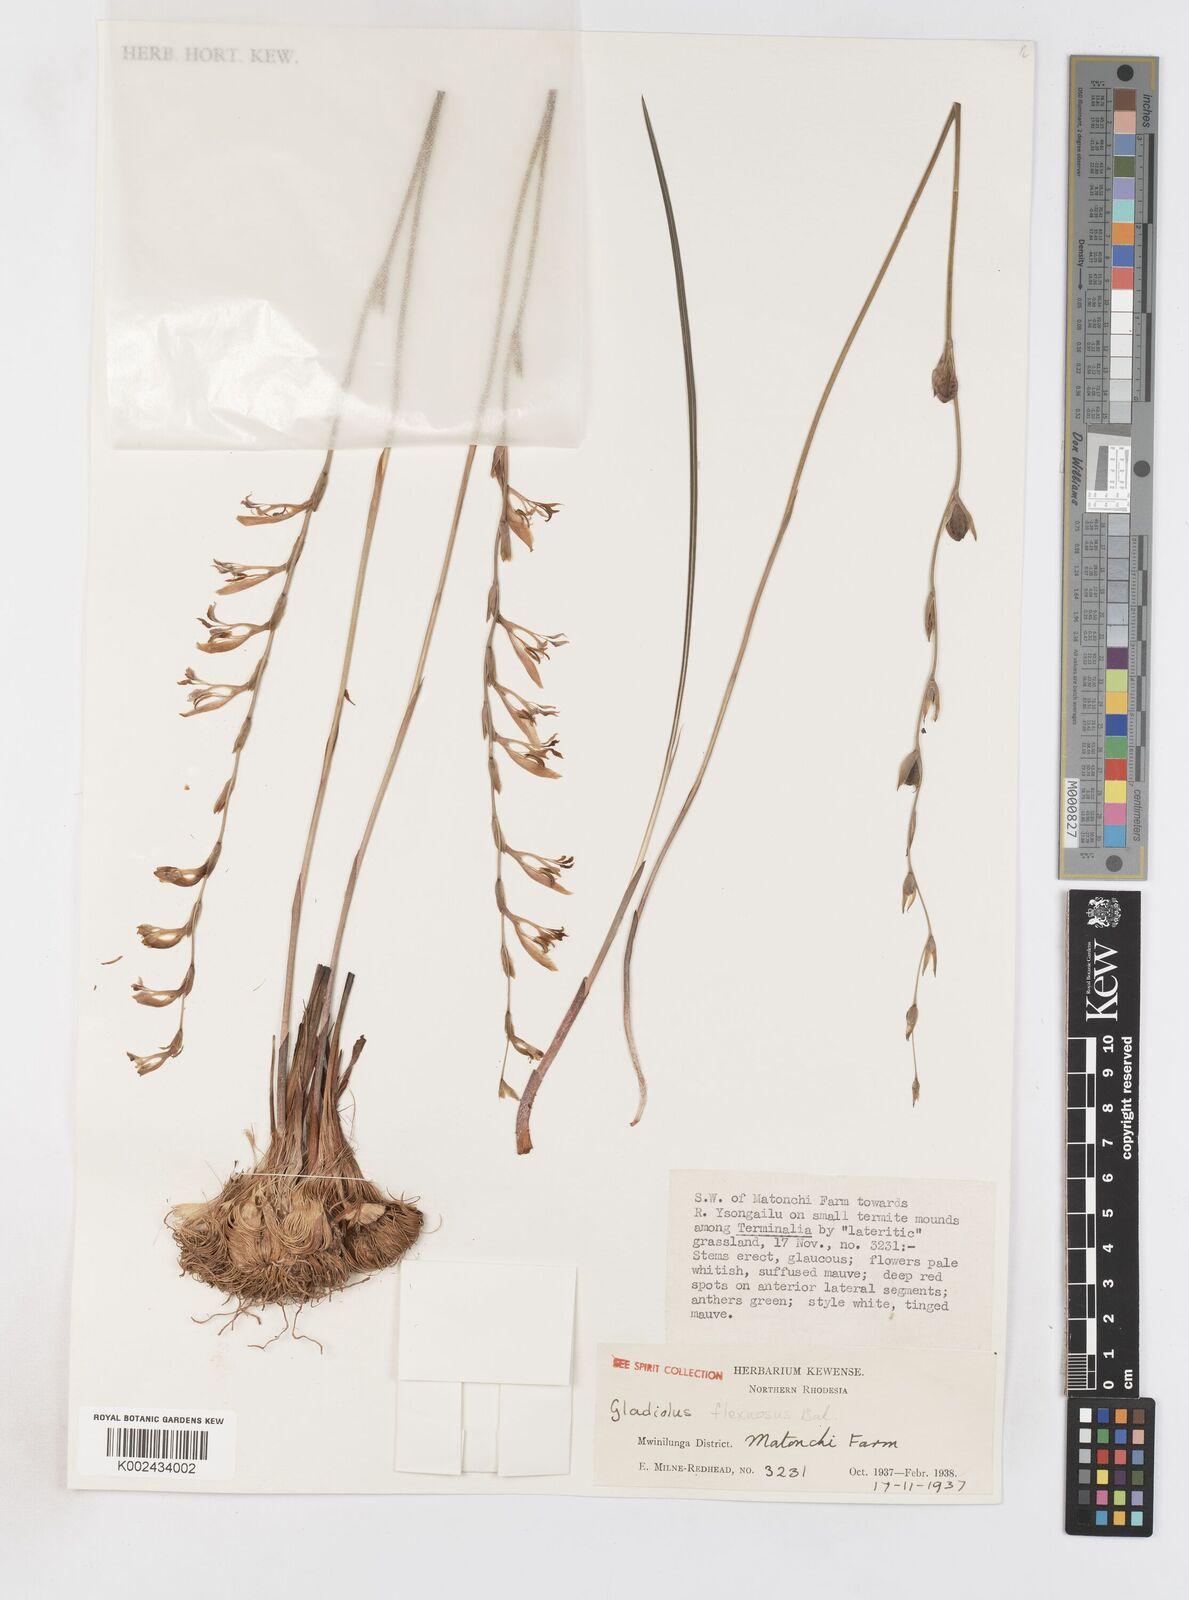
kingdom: Plantae
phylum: Tracheophyta
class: Liliopsida
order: Asparagales
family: Iridaceae
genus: Gladiolus
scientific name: Gladiolus atropurpureus
